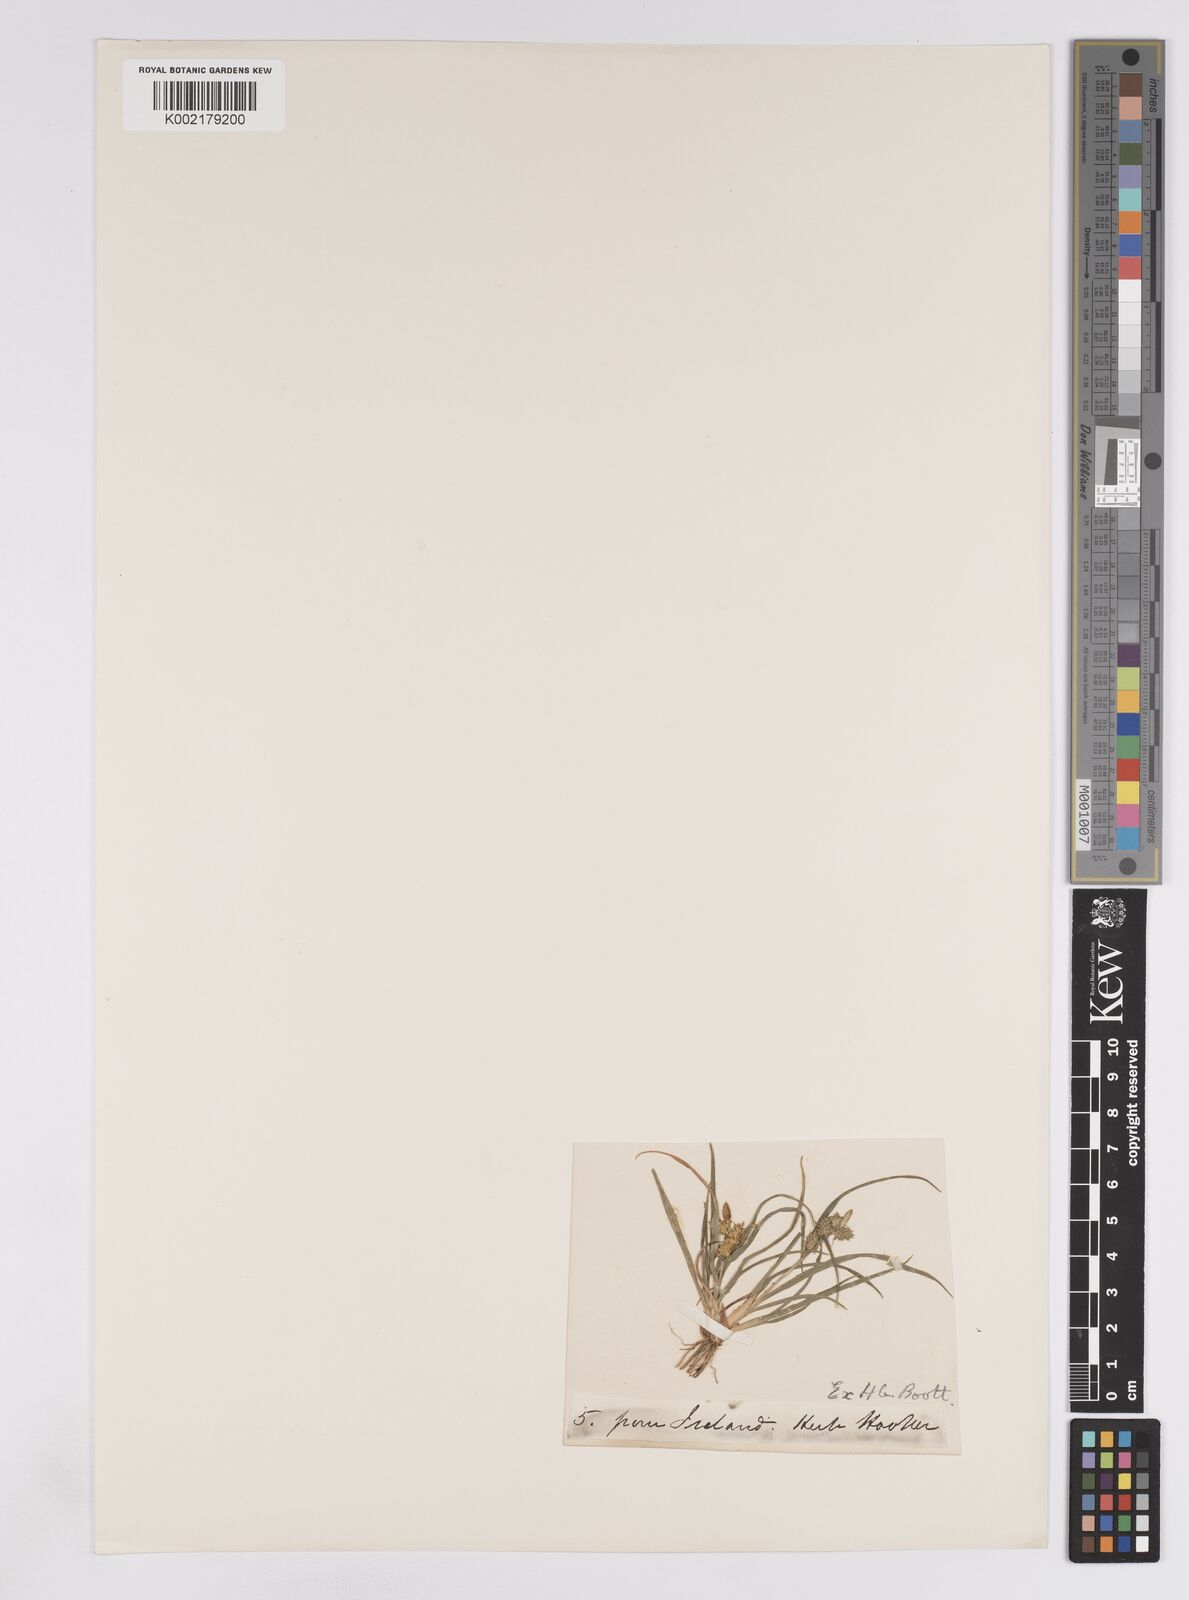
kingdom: Plantae
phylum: Tracheophyta
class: Liliopsida
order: Poales
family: Cyperaceae
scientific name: Cyperaceae
